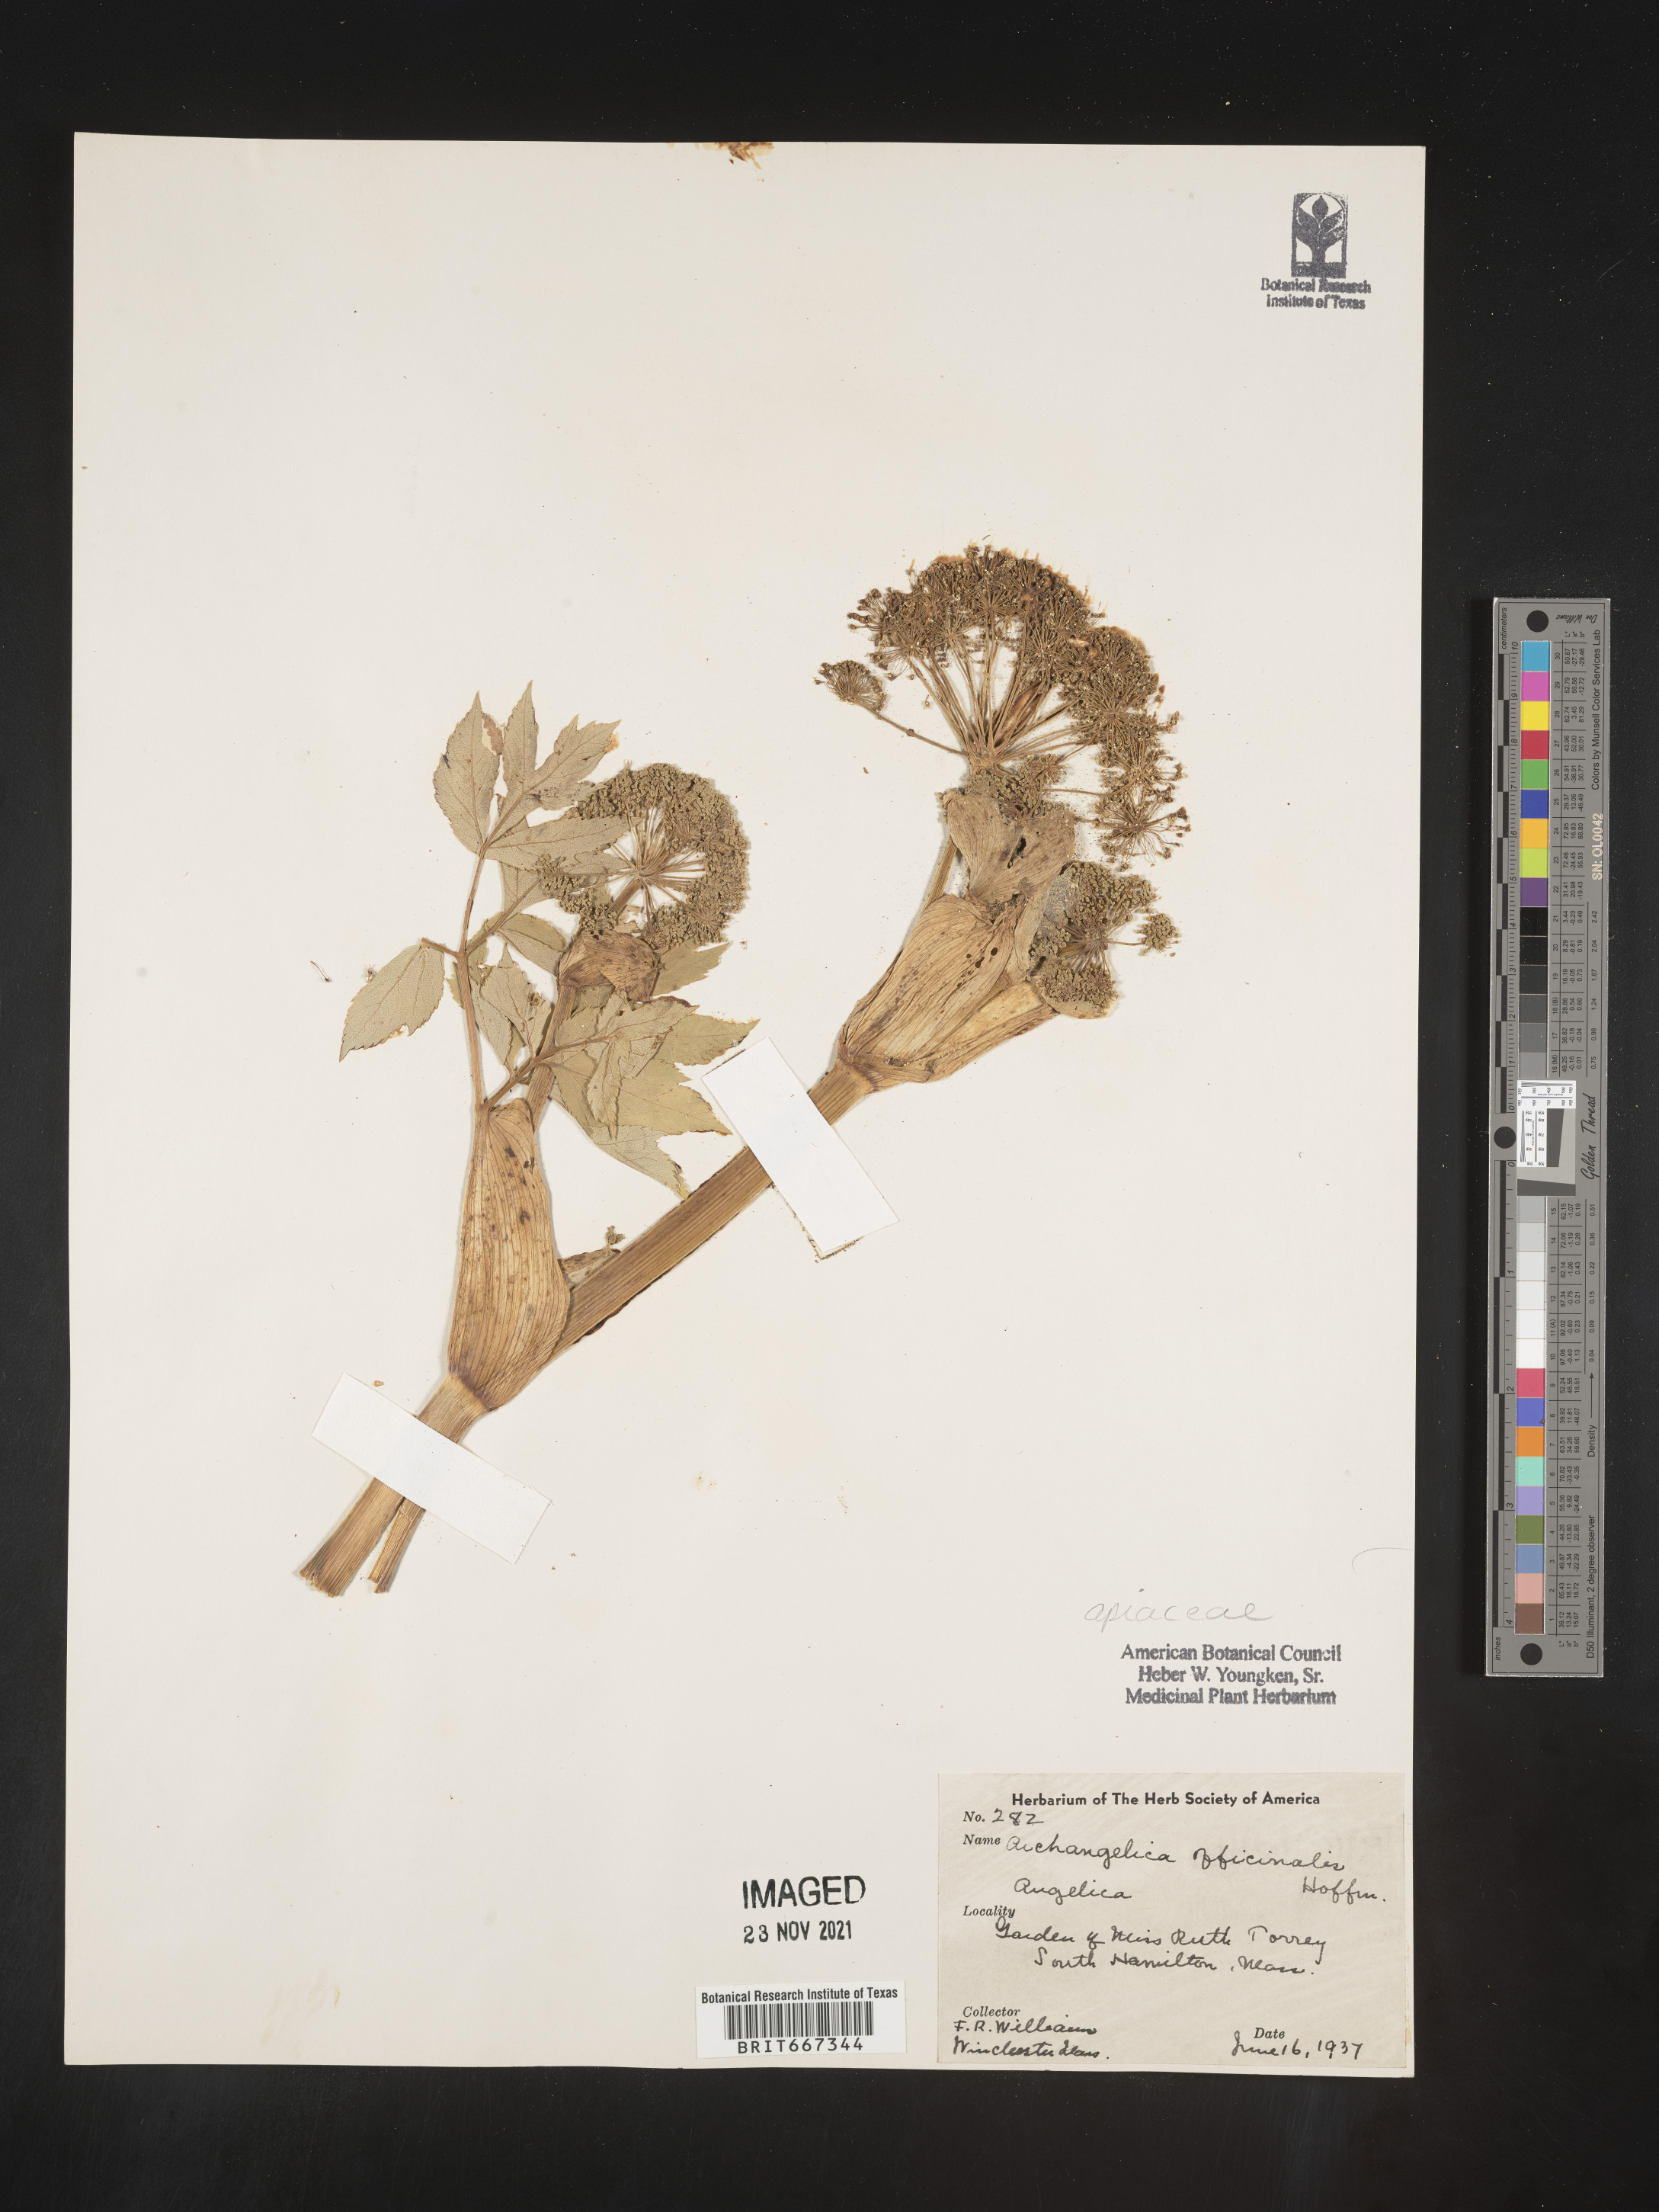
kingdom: Plantae
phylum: Tracheophyta
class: Magnoliopsida
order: Apiales
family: Apiaceae
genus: Angelica
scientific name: Angelica
